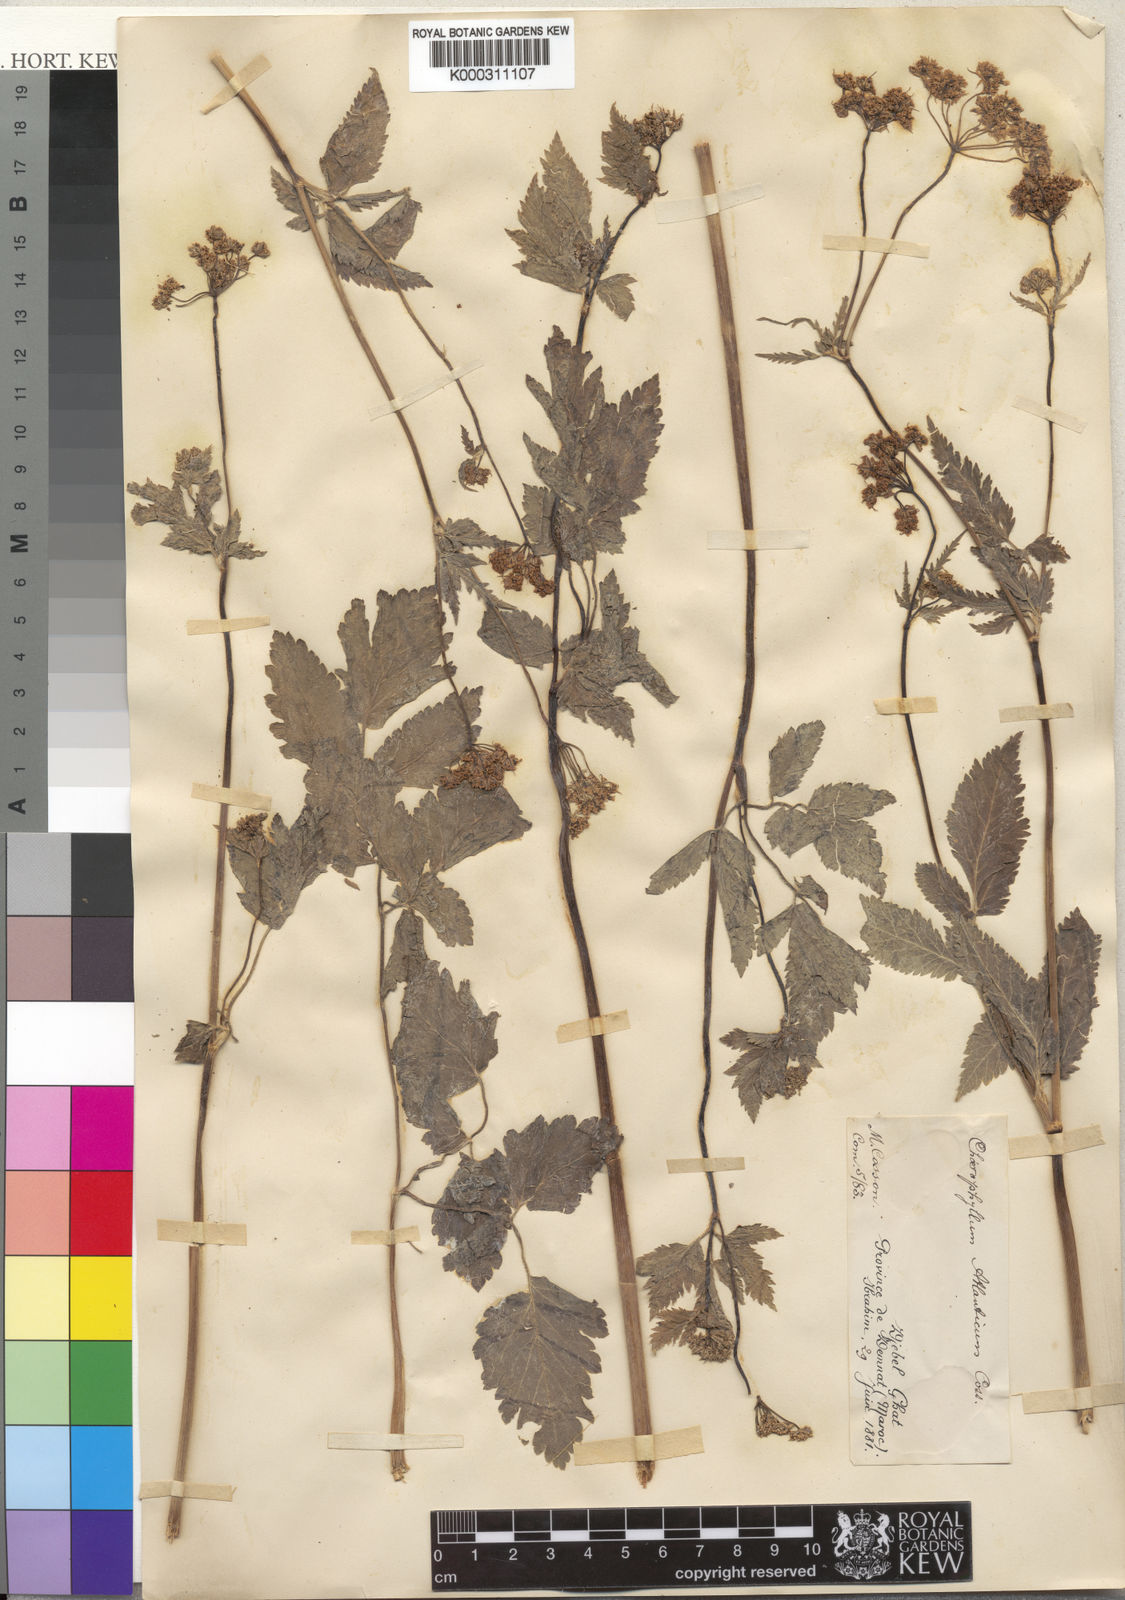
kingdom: Plantae
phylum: Tracheophyta
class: Magnoliopsida
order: Apiales
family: Apiaceae
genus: Chaerophyllum
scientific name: Chaerophyllum
